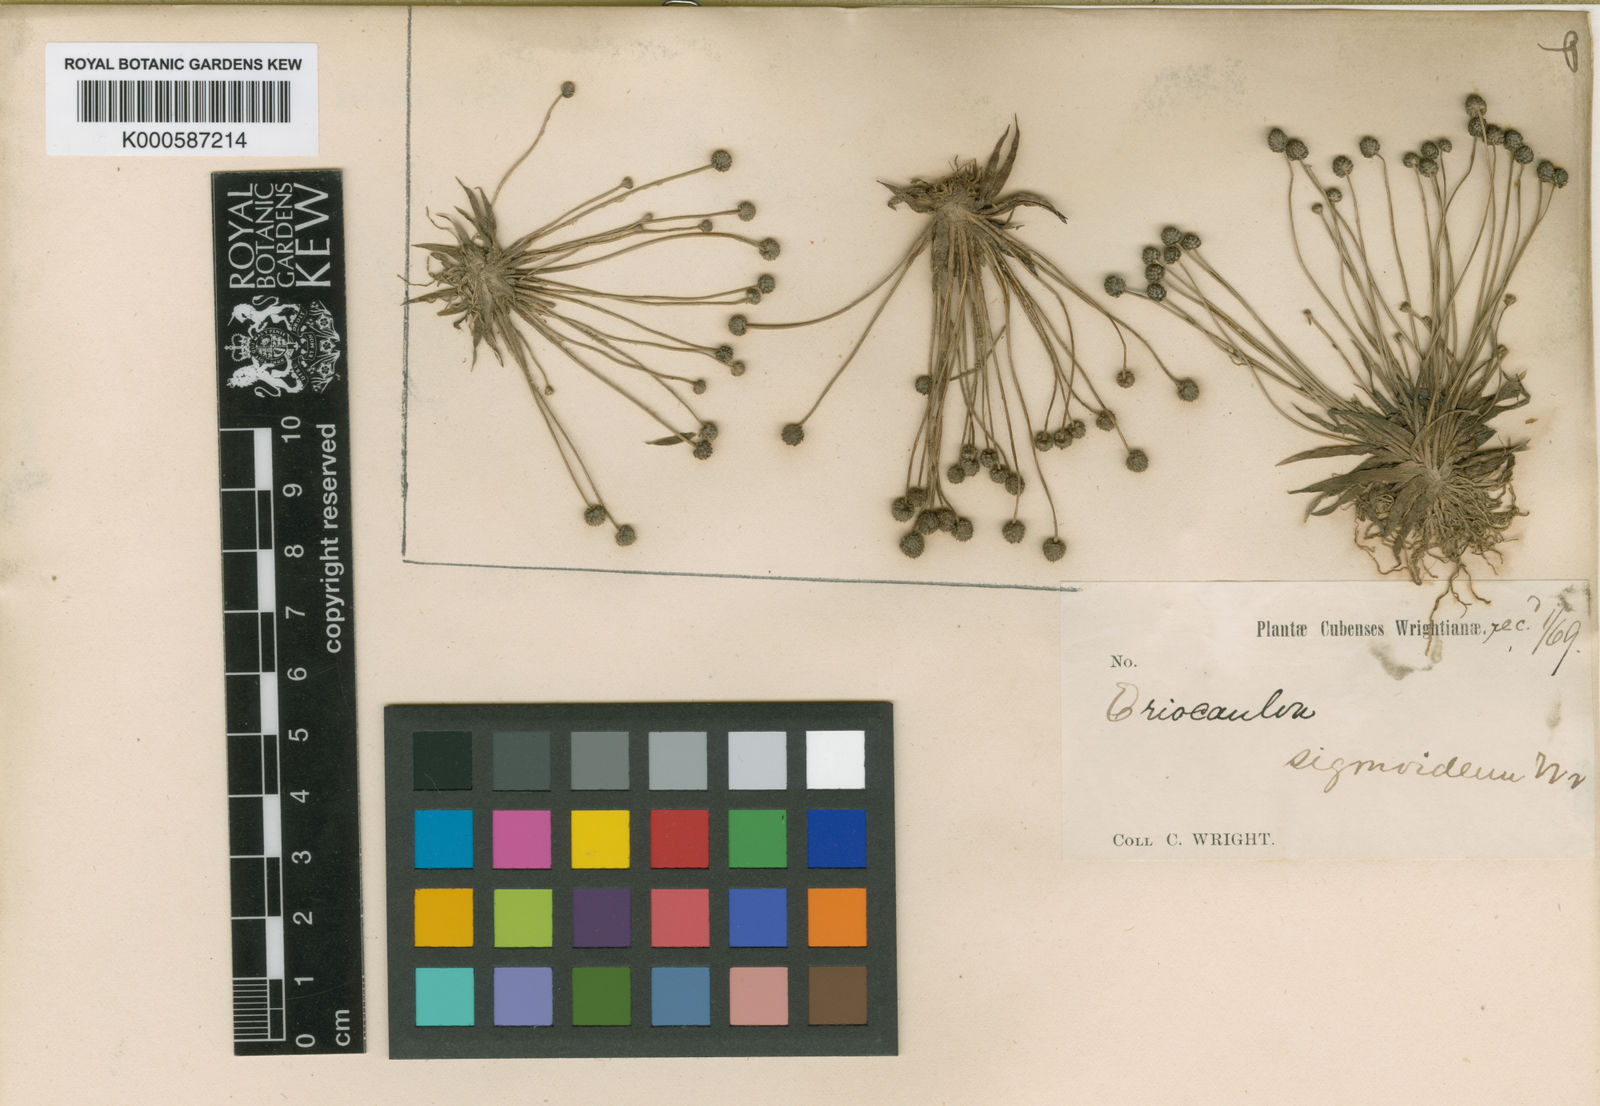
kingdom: Plantae
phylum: Tracheophyta
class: Liliopsida
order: Poales
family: Eriocaulaceae
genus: Eriocaulon
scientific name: Eriocaulon sigmoideum
